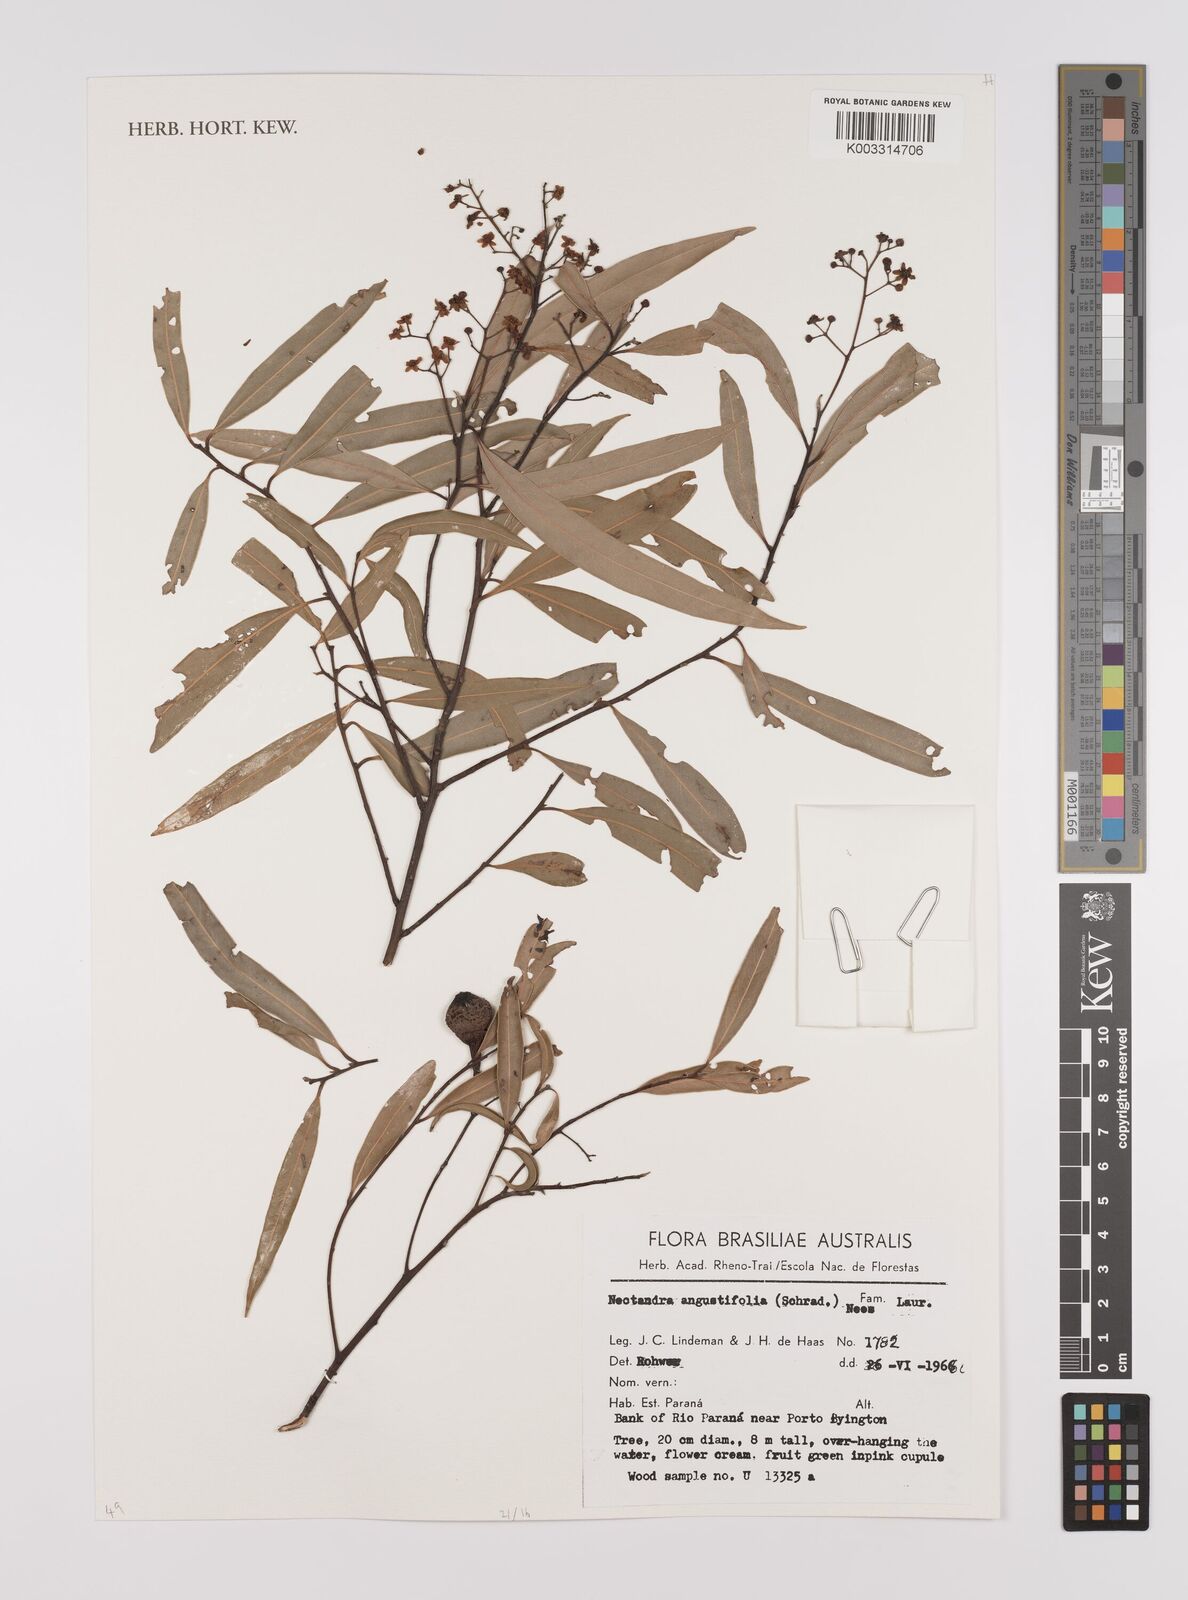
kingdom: Plantae
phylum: Tracheophyta
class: Magnoliopsida
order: Laurales
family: Lauraceae
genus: Nectandra
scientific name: Nectandra angustifolia
